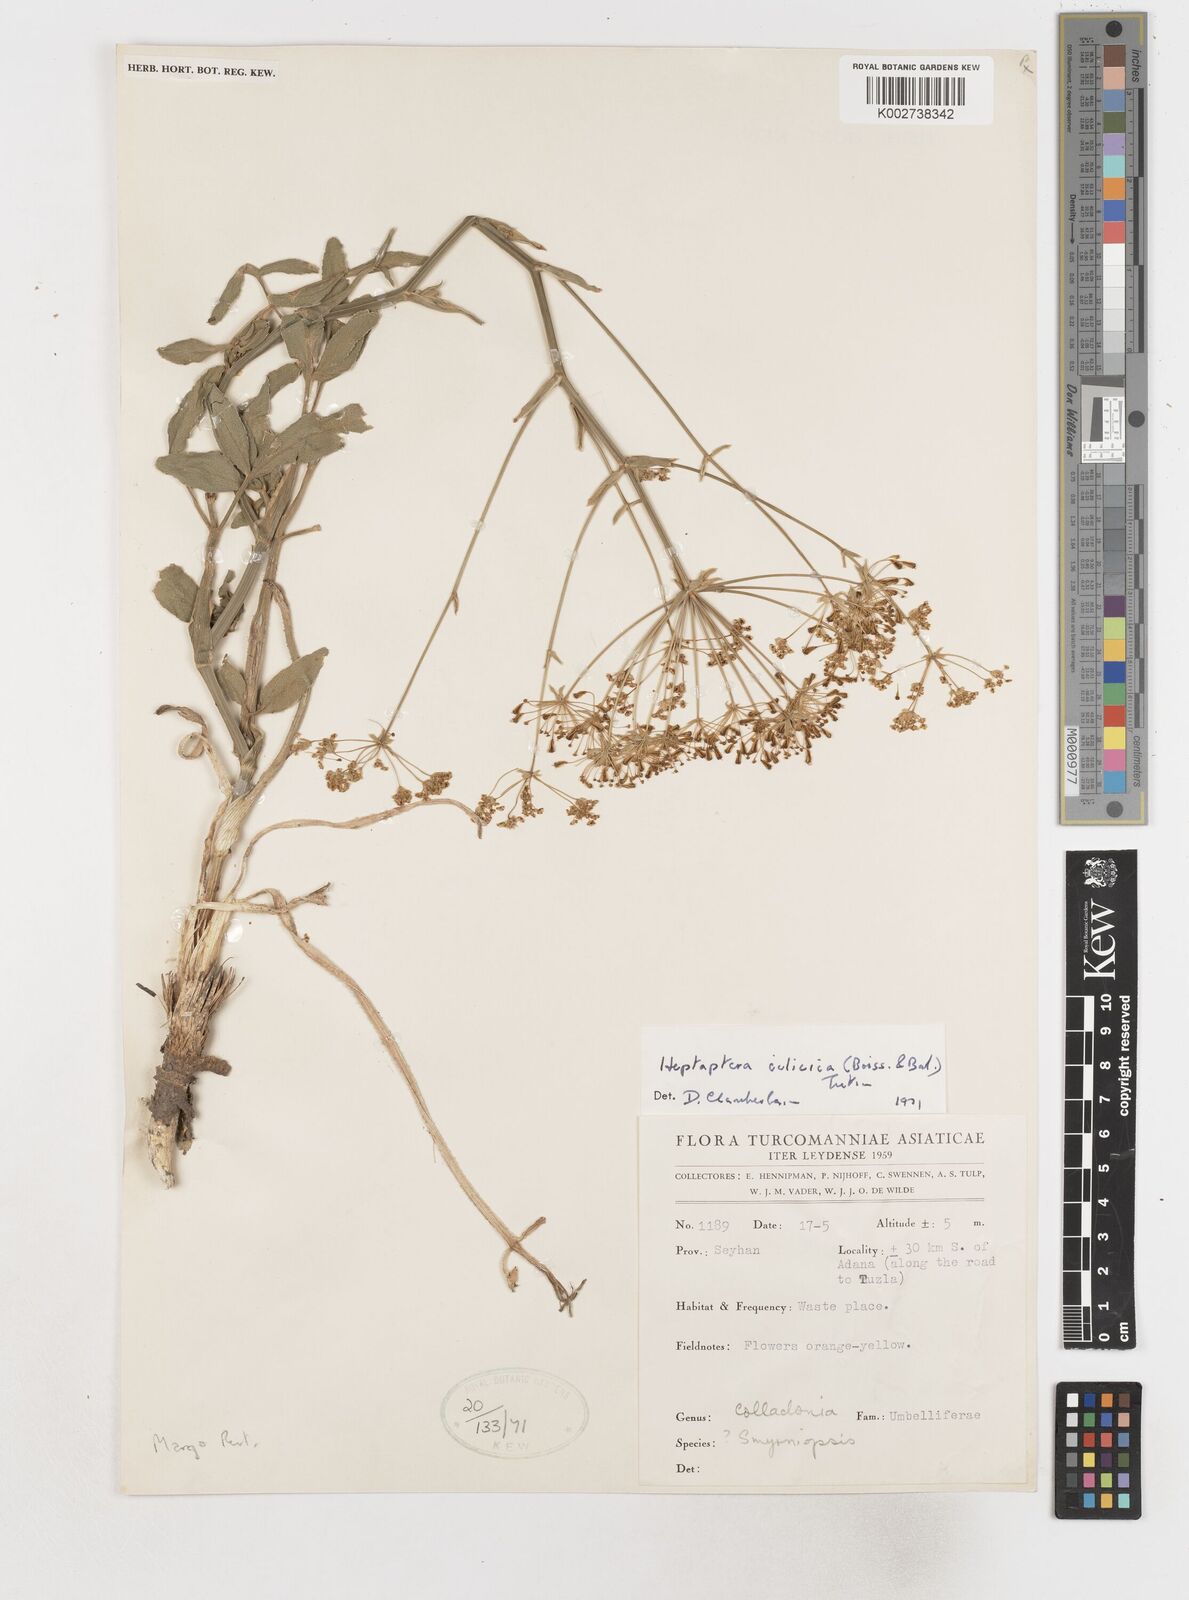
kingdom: Plantae
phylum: Tracheophyta
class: Magnoliopsida
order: Apiales
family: Apiaceae
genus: Heptaptera
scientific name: Heptaptera cilicica
